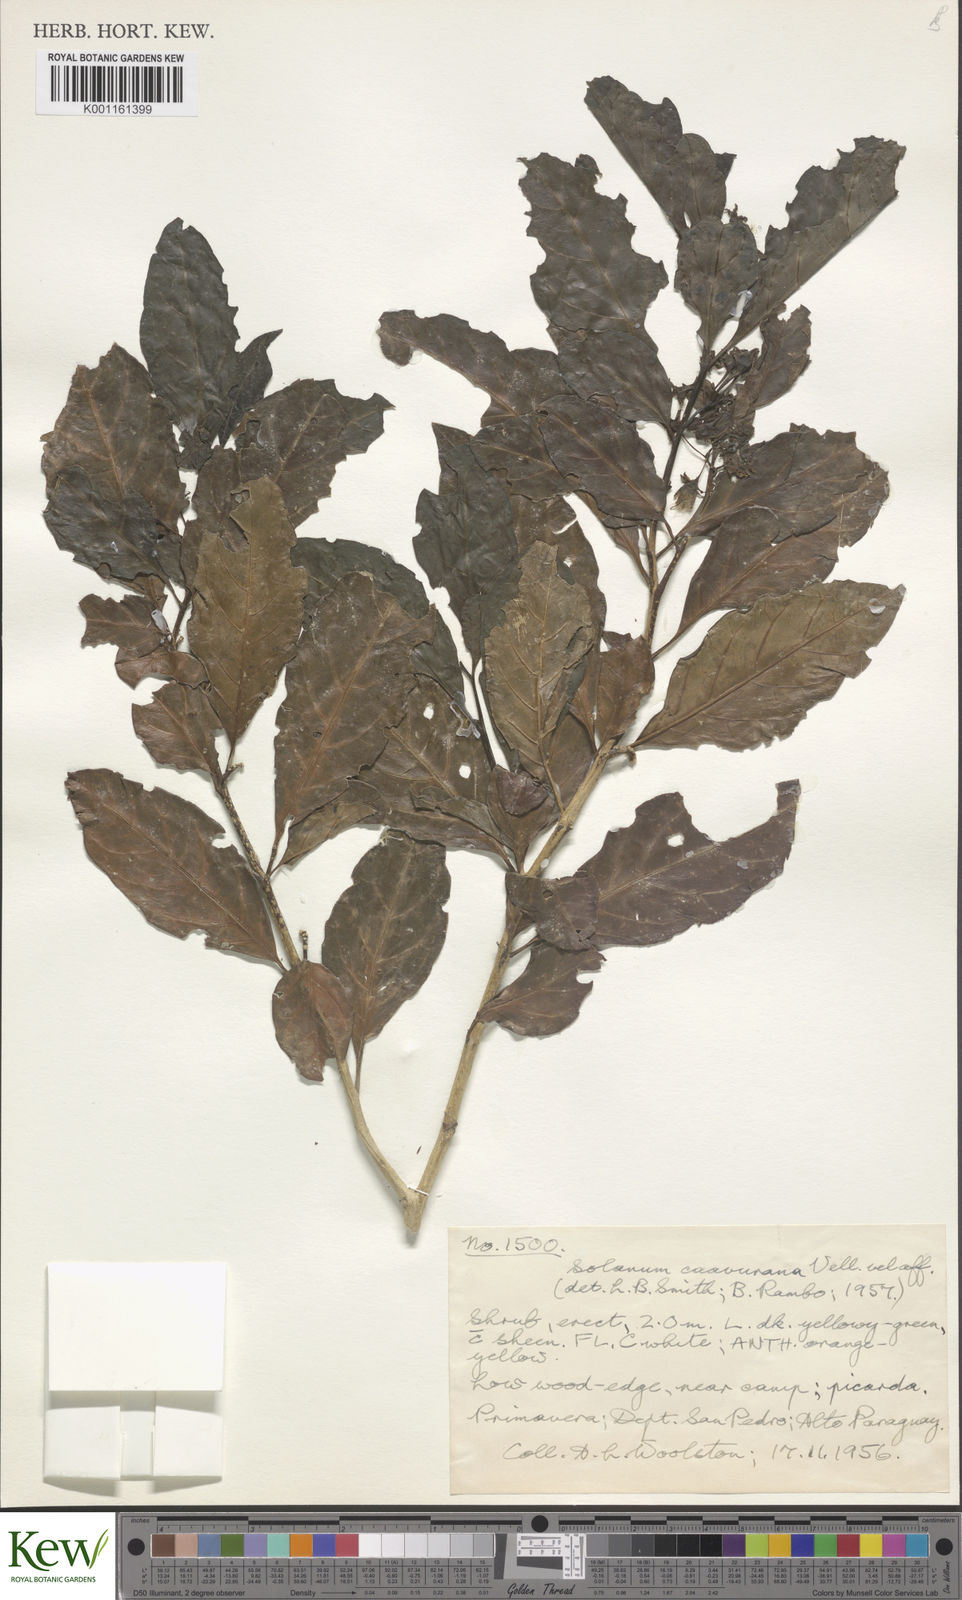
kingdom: Plantae
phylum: Tracheophyta
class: Magnoliopsida
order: Solanales
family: Solanaceae
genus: Solanum
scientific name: Solanum caavurana
